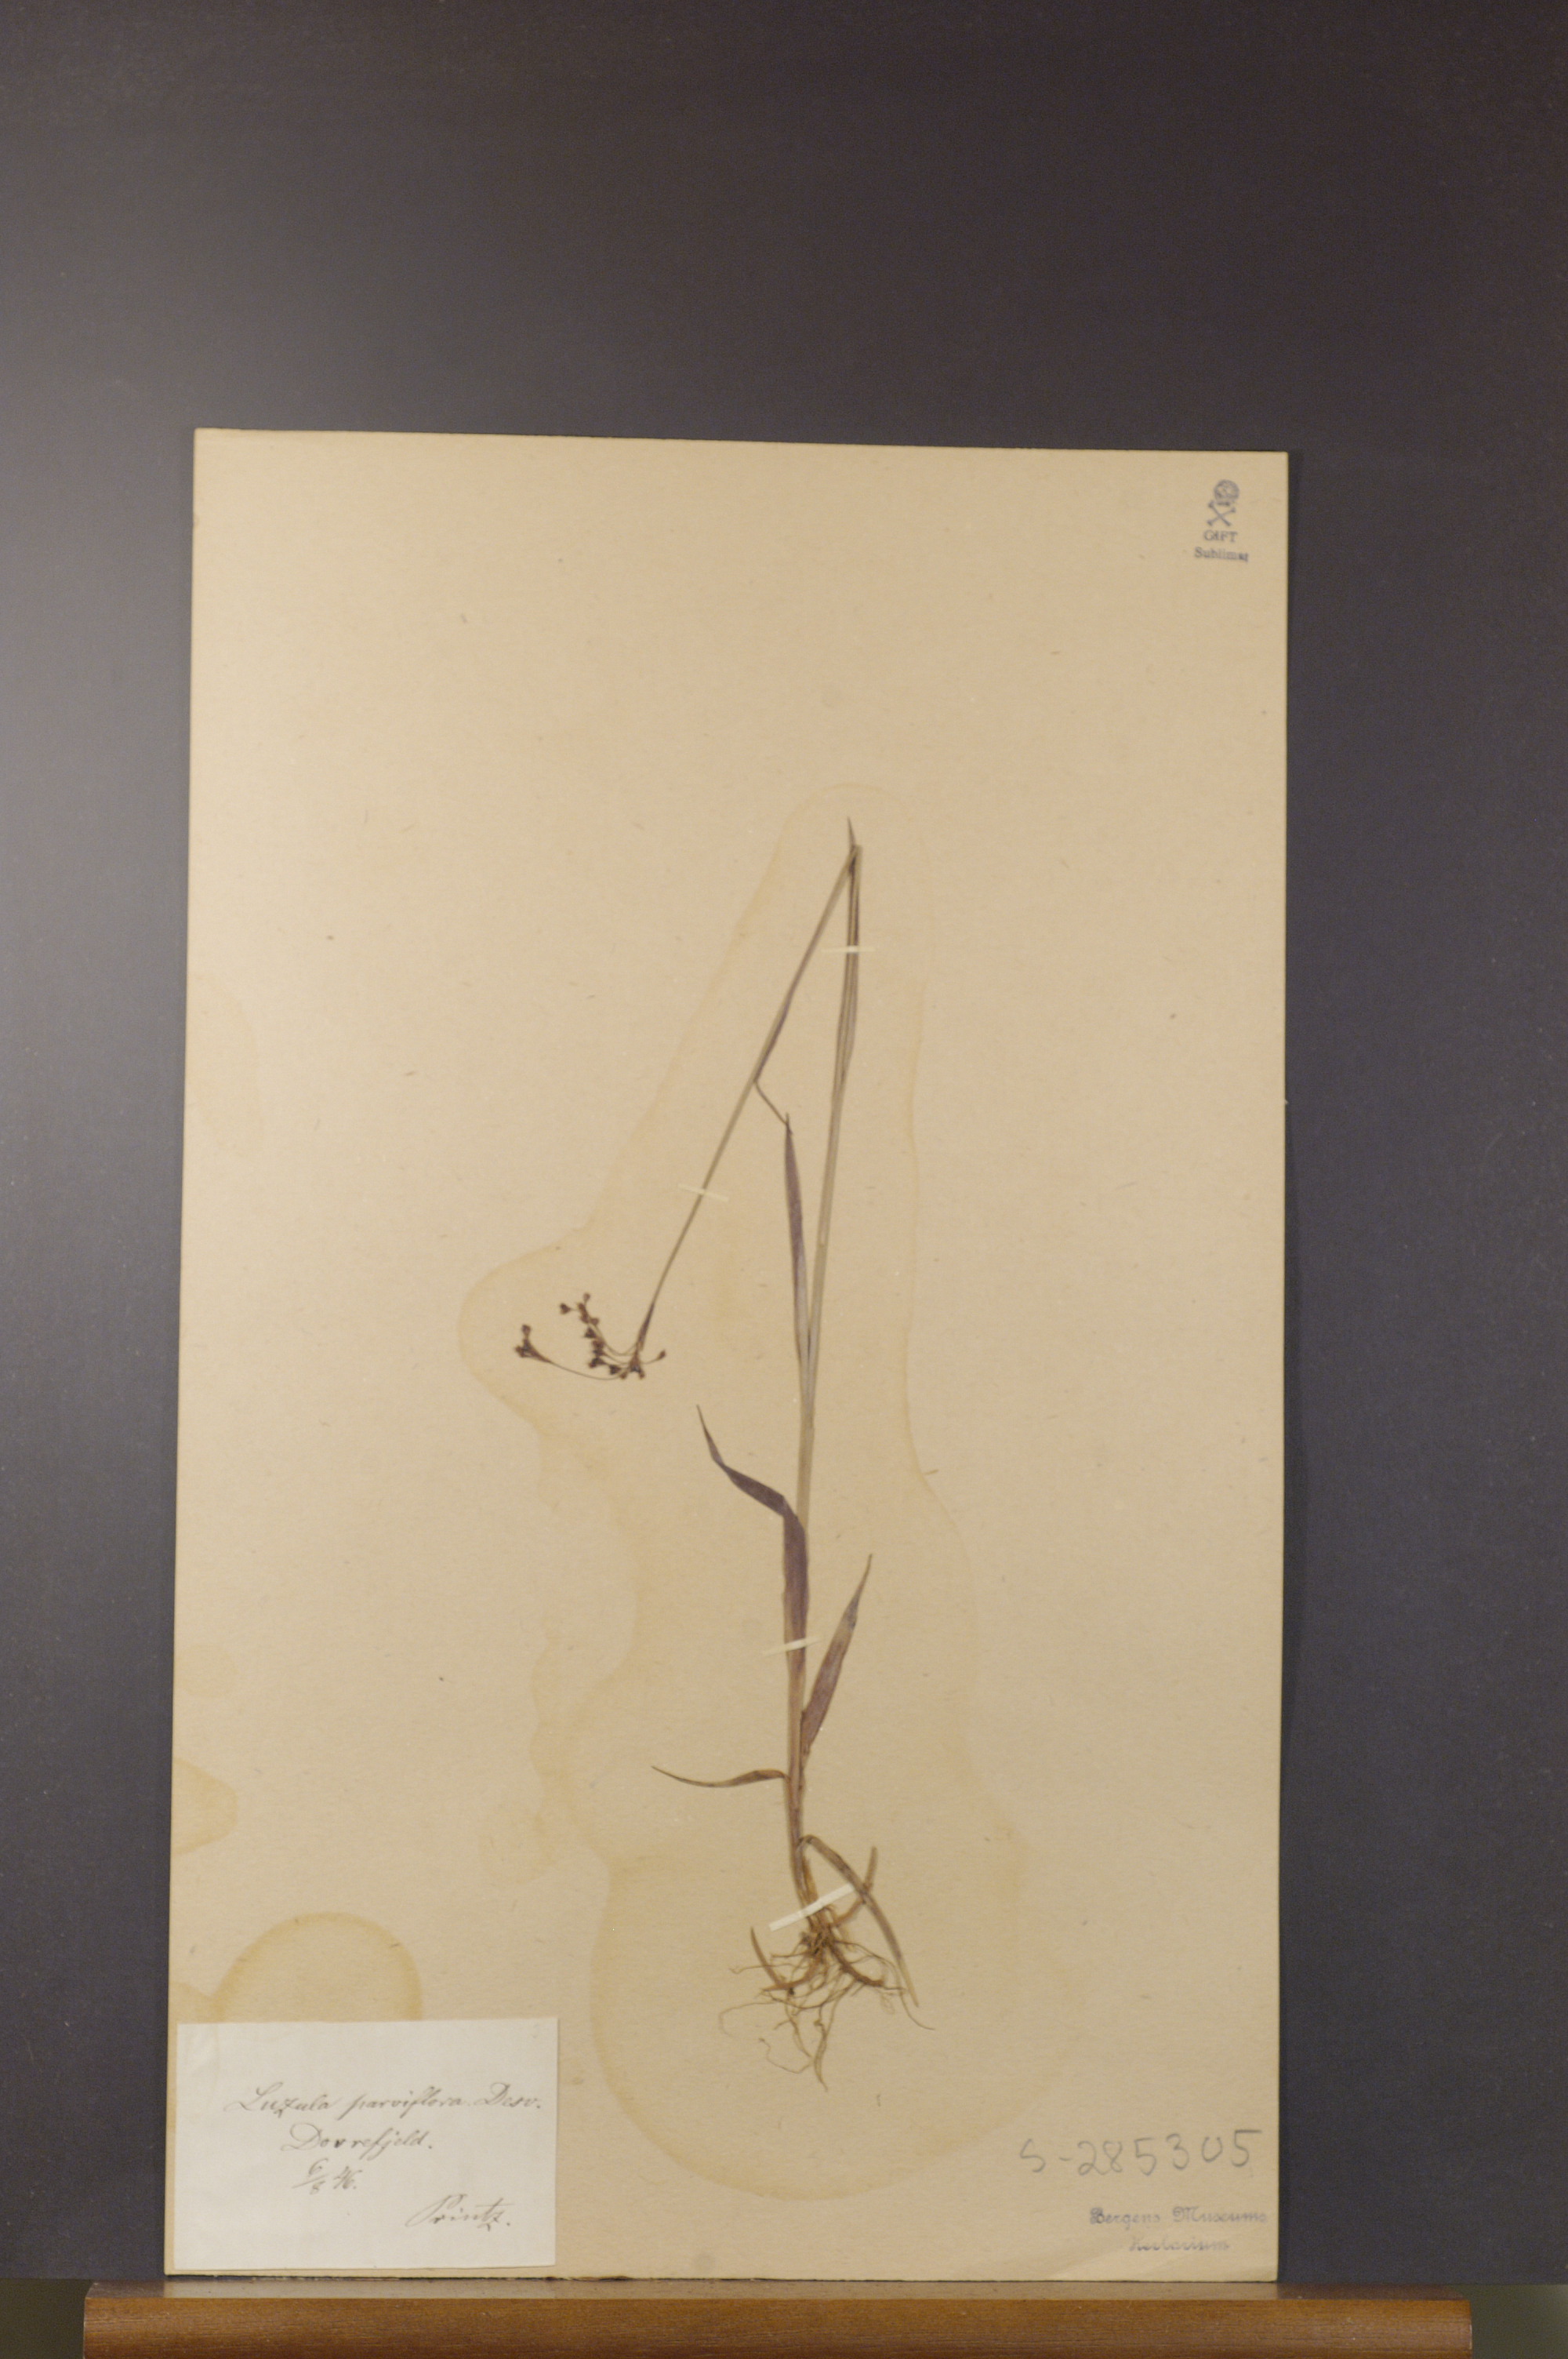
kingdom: Plantae
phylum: Tracheophyta
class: Liliopsida
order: Poales
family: Juncaceae
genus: Luzula
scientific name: Luzula parviflora
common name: Millet woodrush
